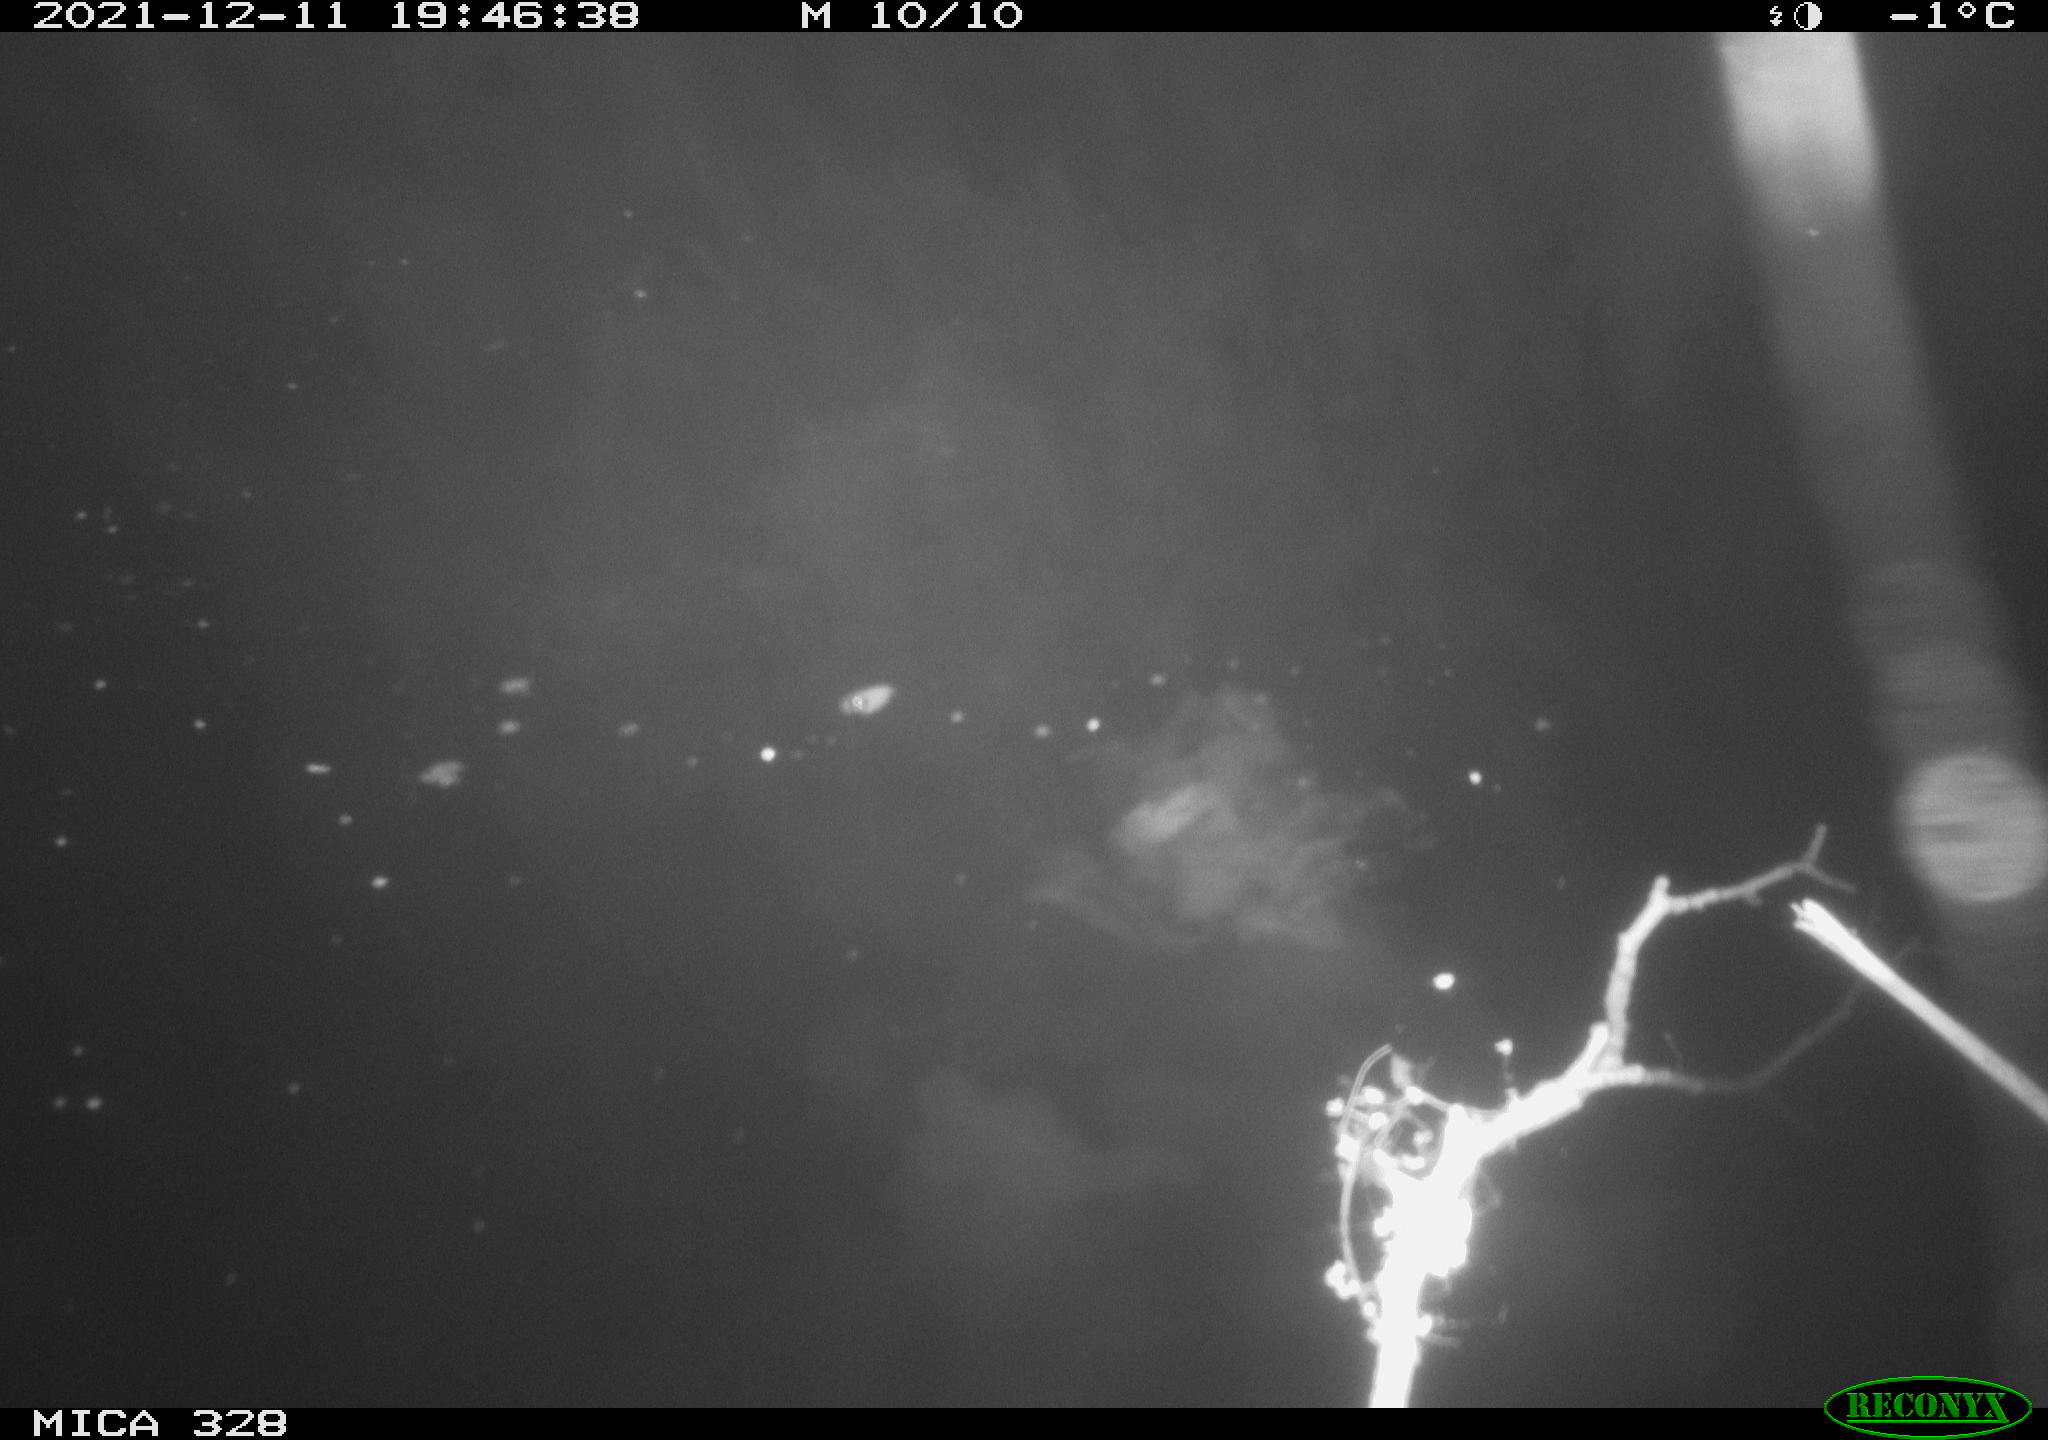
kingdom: Animalia
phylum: Chordata
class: Aves
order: Anseriformes
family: Anatidae
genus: Anas
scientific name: Anas platyrhynchos
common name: Mallard
